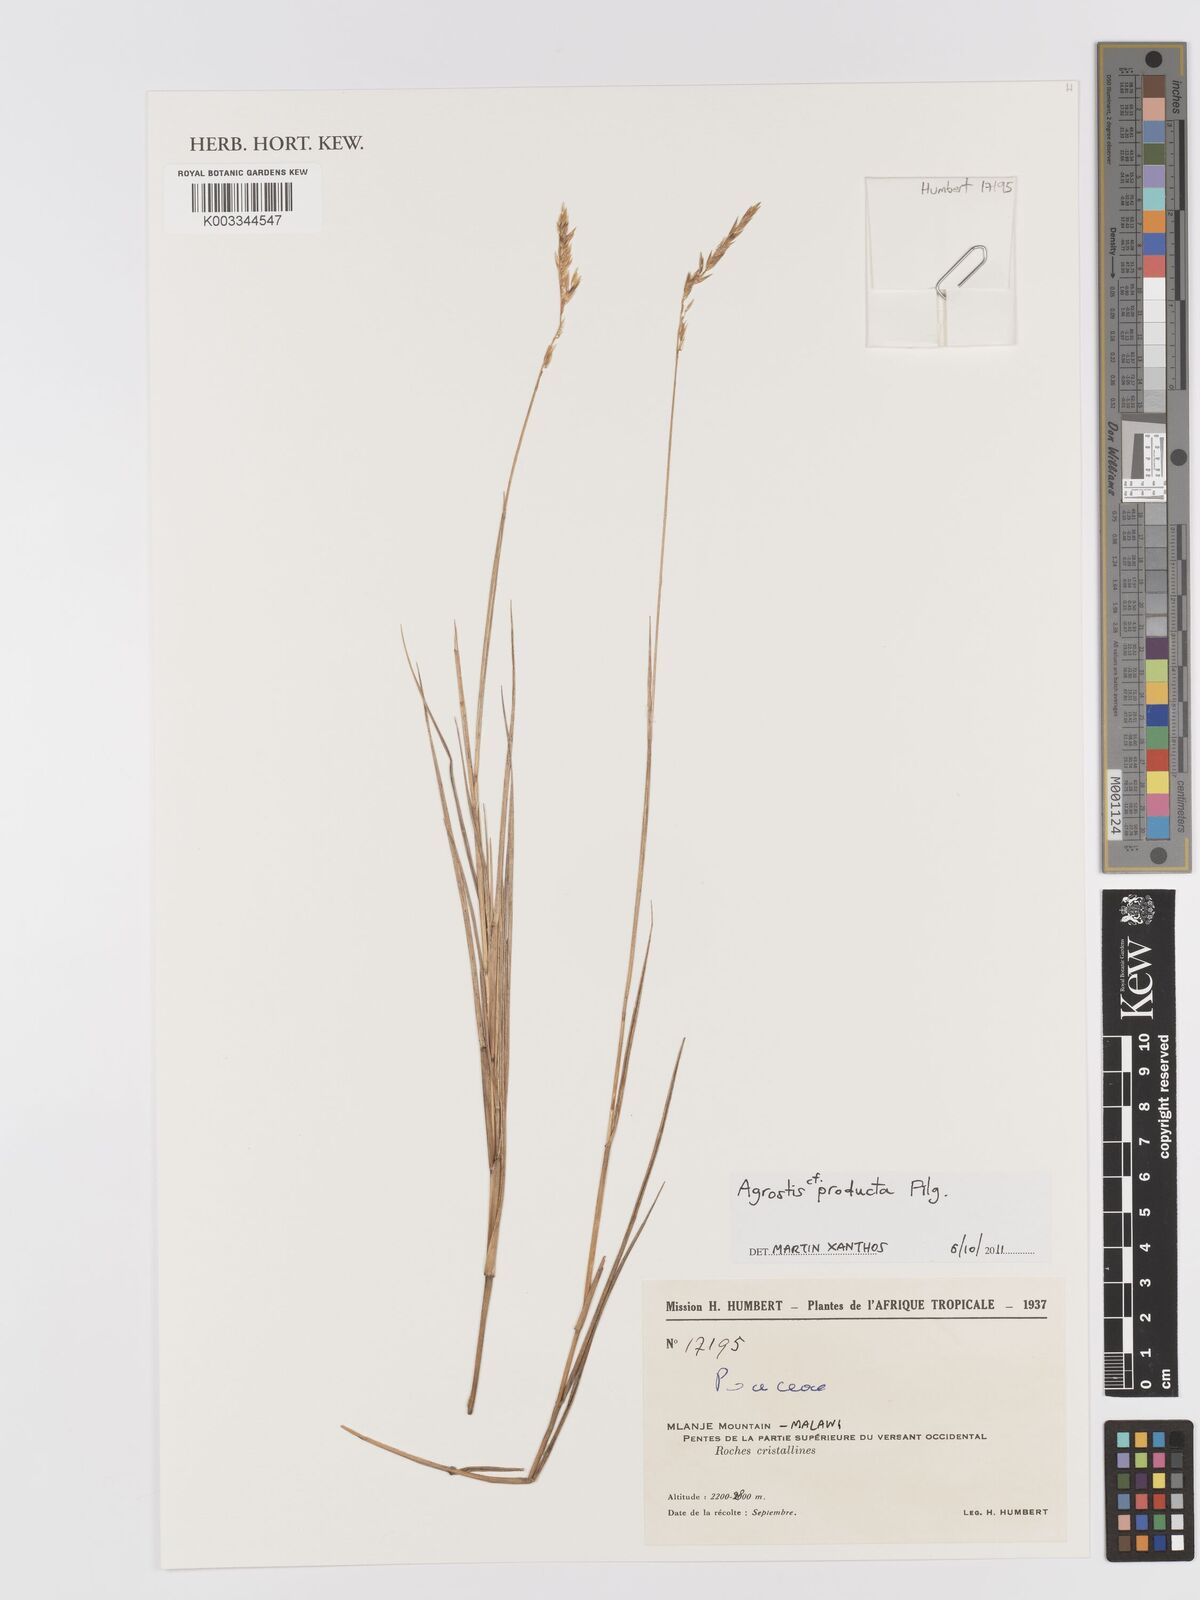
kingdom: Plantae
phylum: Tracheophyta
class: Liliopsida
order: Poales
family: Poaceae
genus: Agrostis
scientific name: Agrostis producta
